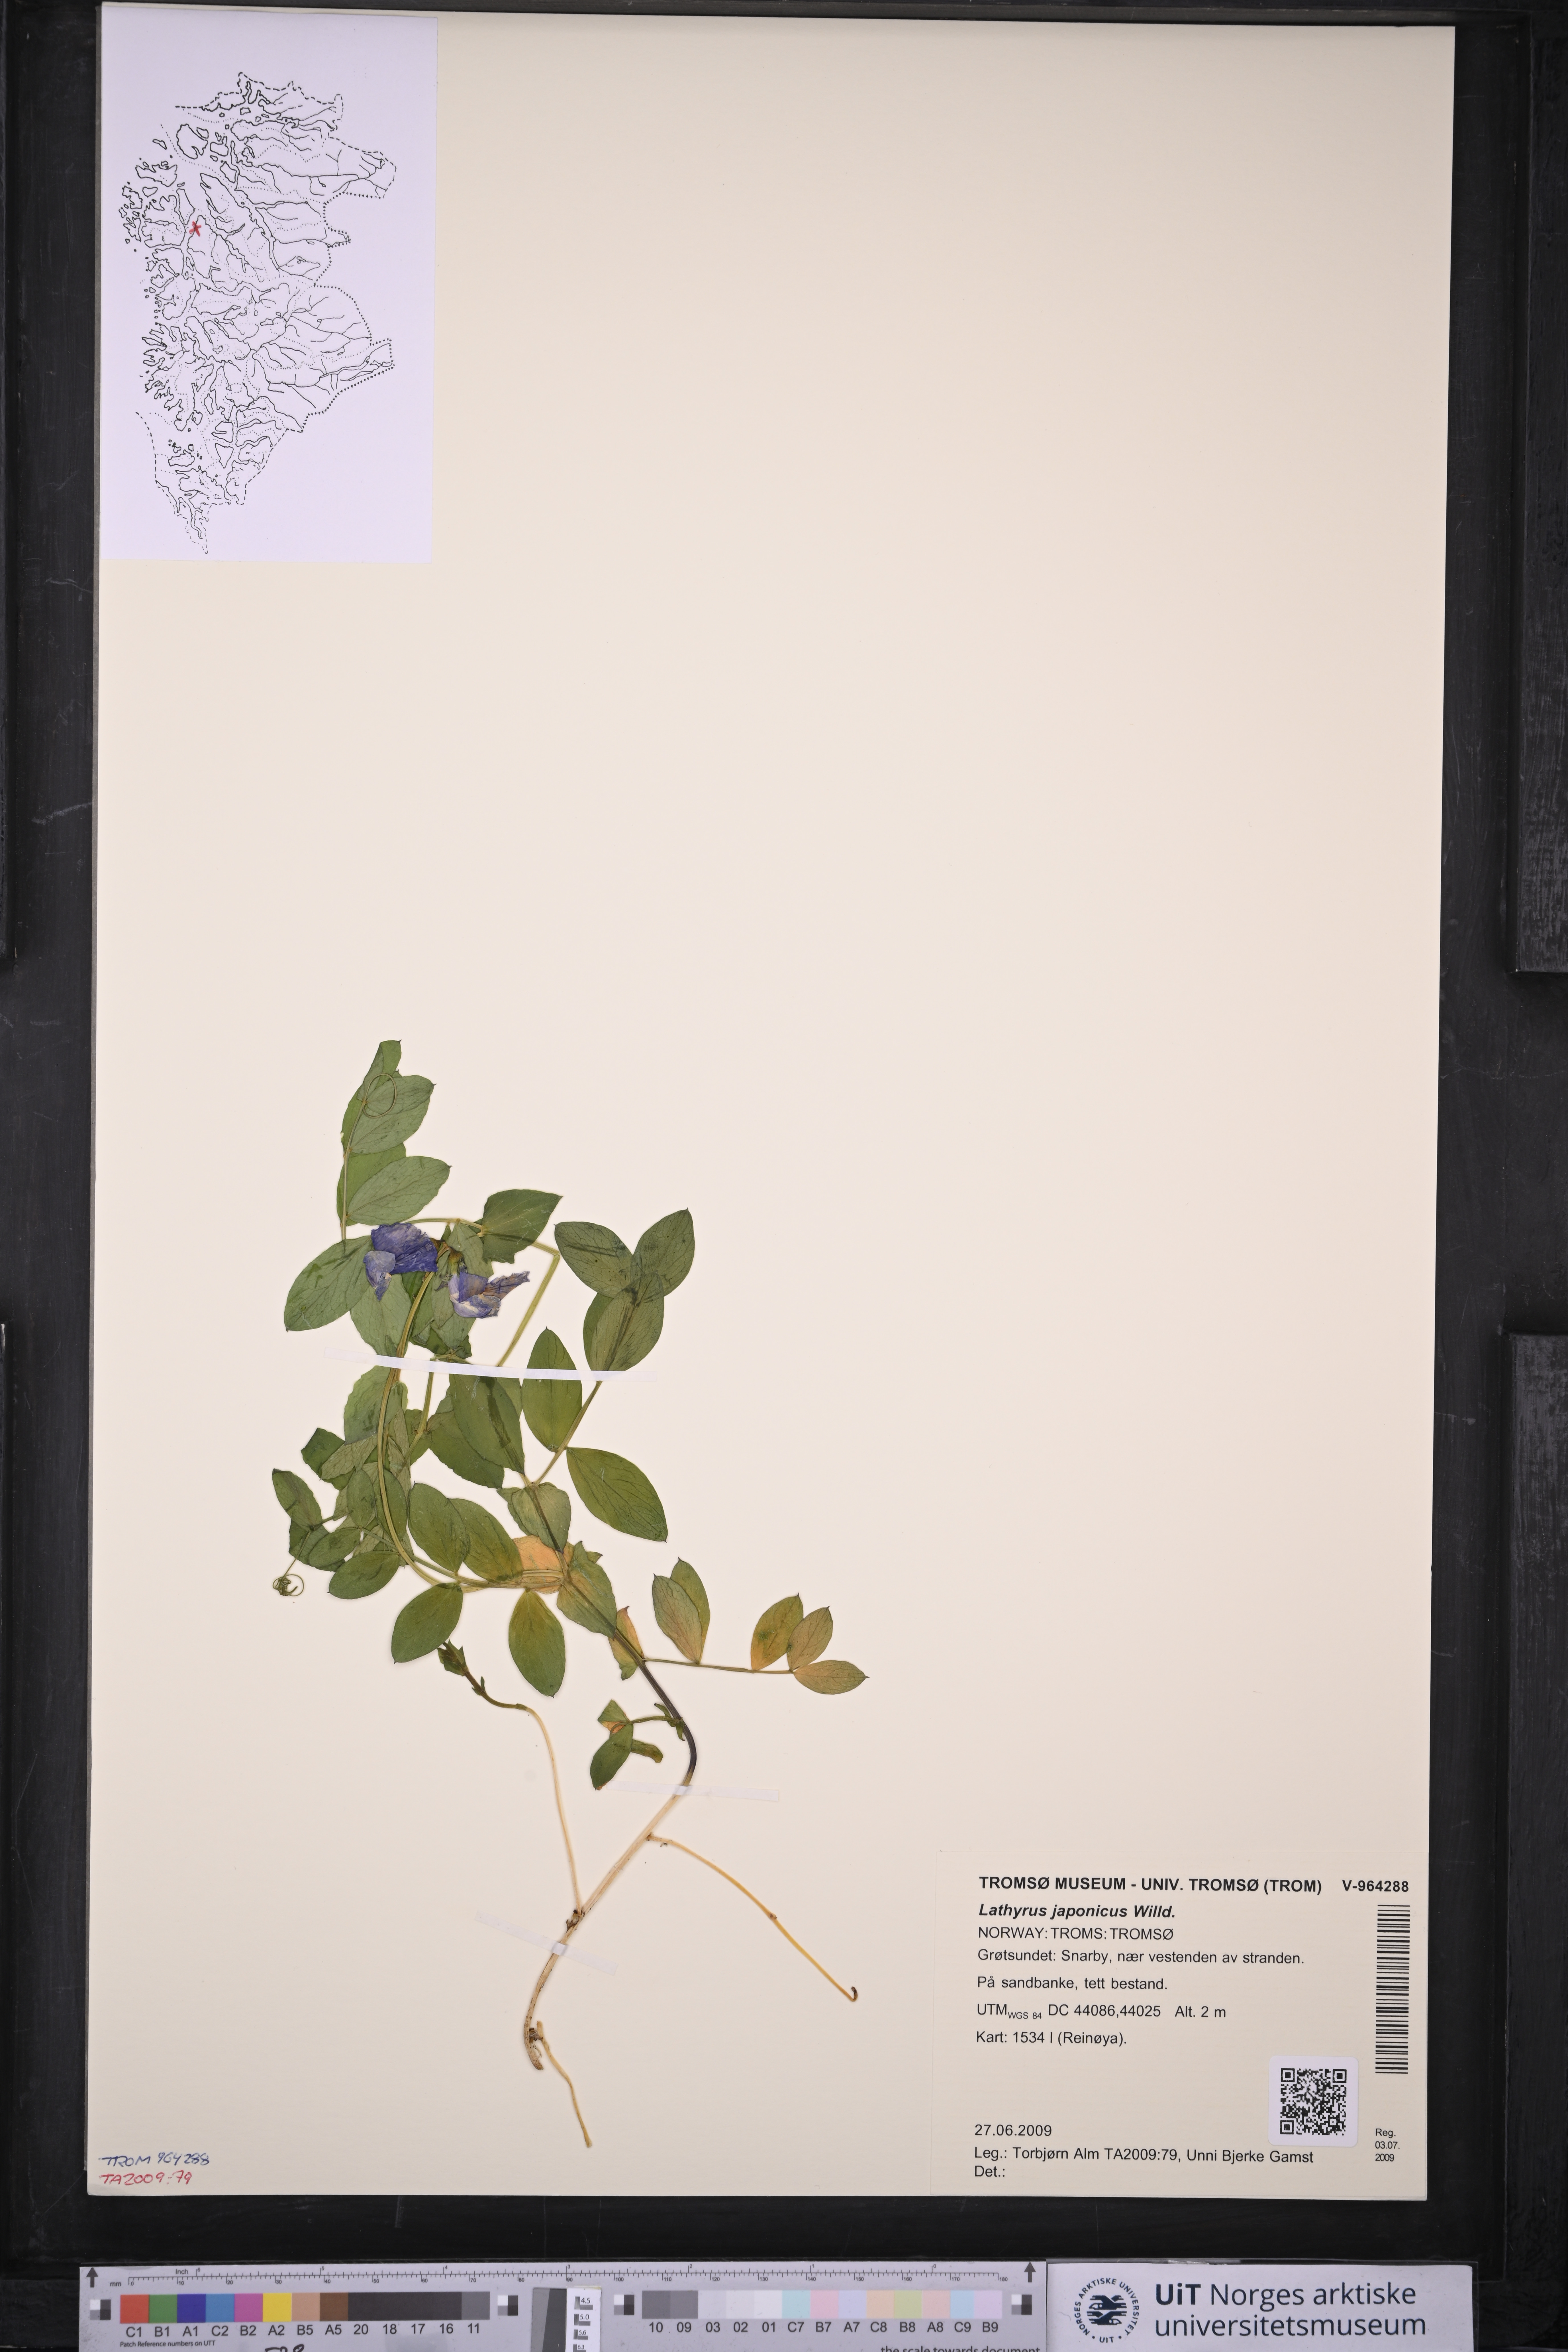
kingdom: Plantae
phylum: Tracheophyta
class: Magnoliopsida
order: Fabales
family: Fabaceae
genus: Lathyrus
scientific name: Lathyrus japonicus
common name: Sea pea
